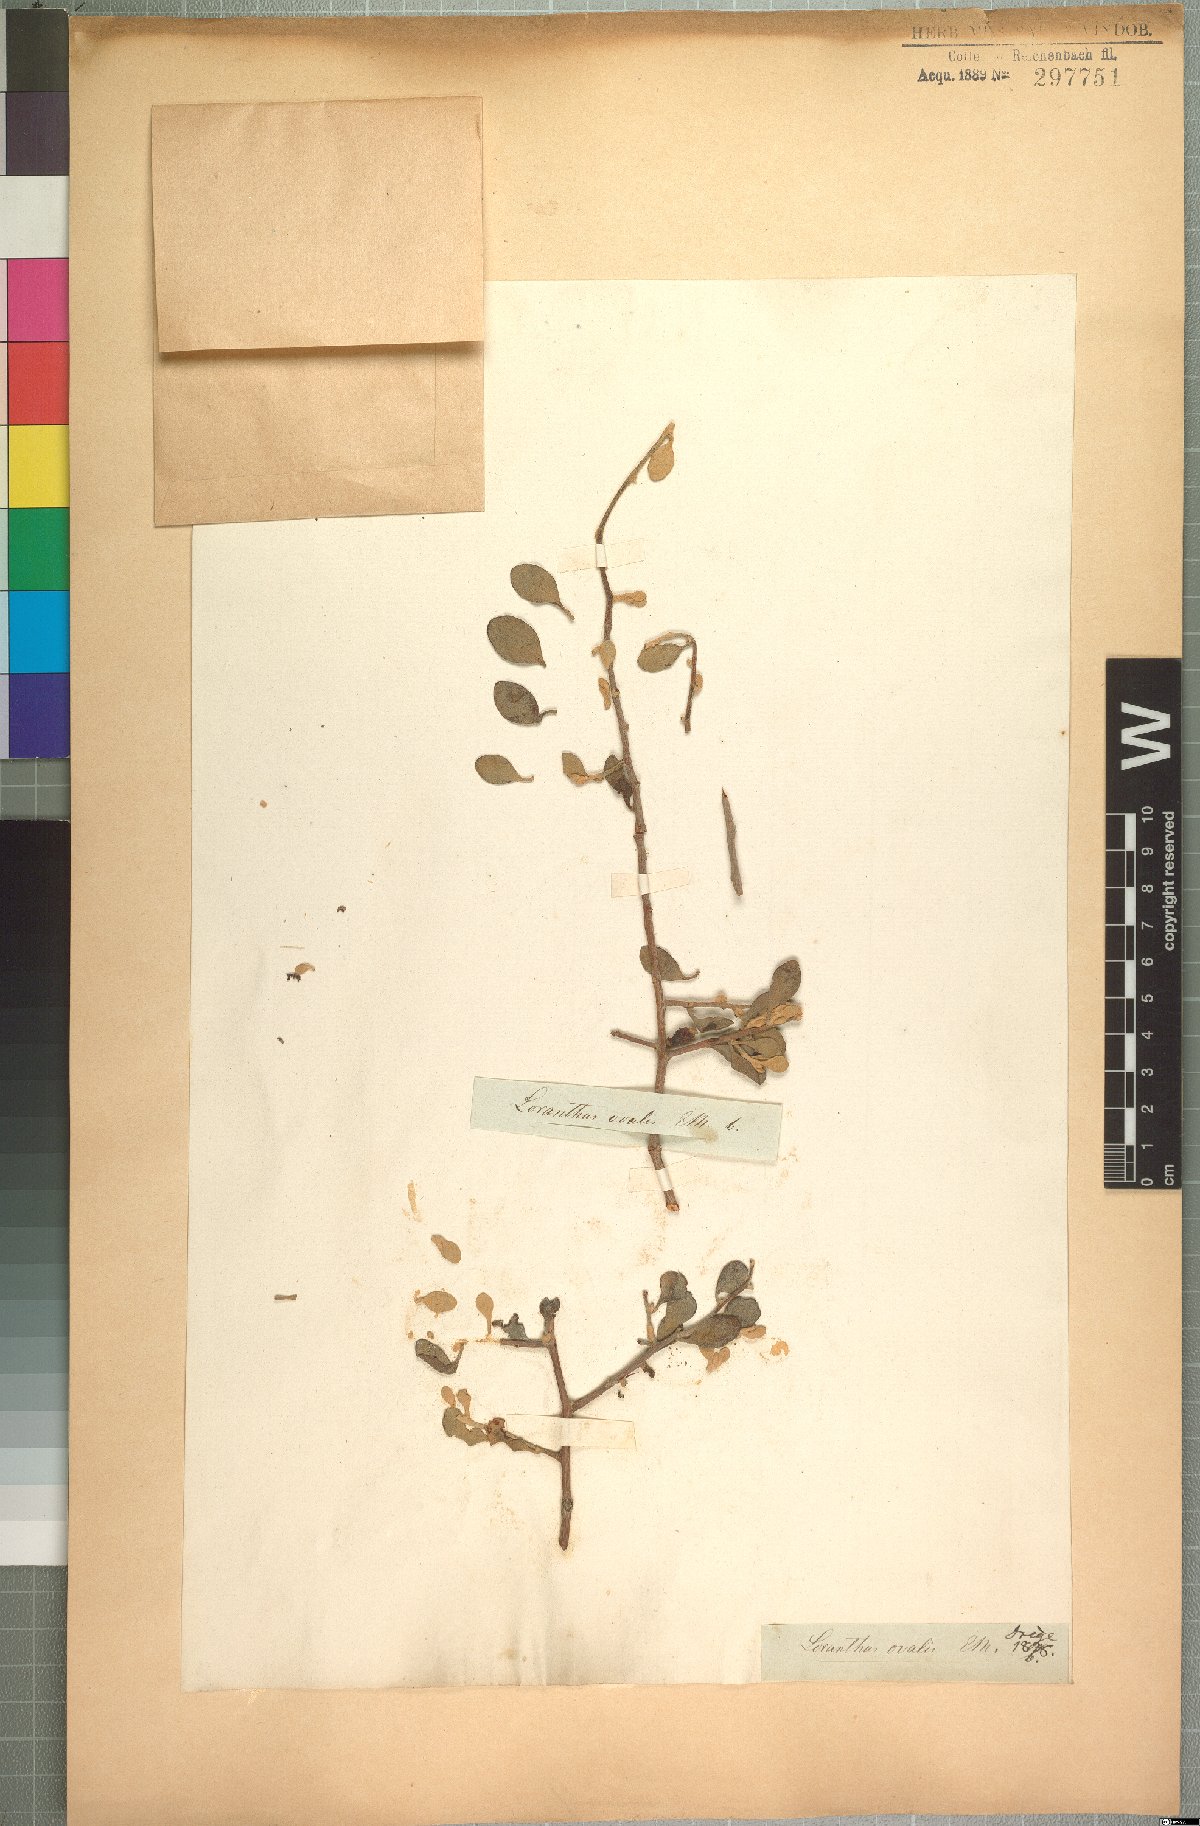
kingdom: Plantae
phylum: Tracheophyta
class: Magnoliopsida
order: Santalales
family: Loranthaceae
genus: Septulina
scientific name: Septulina ovalis
